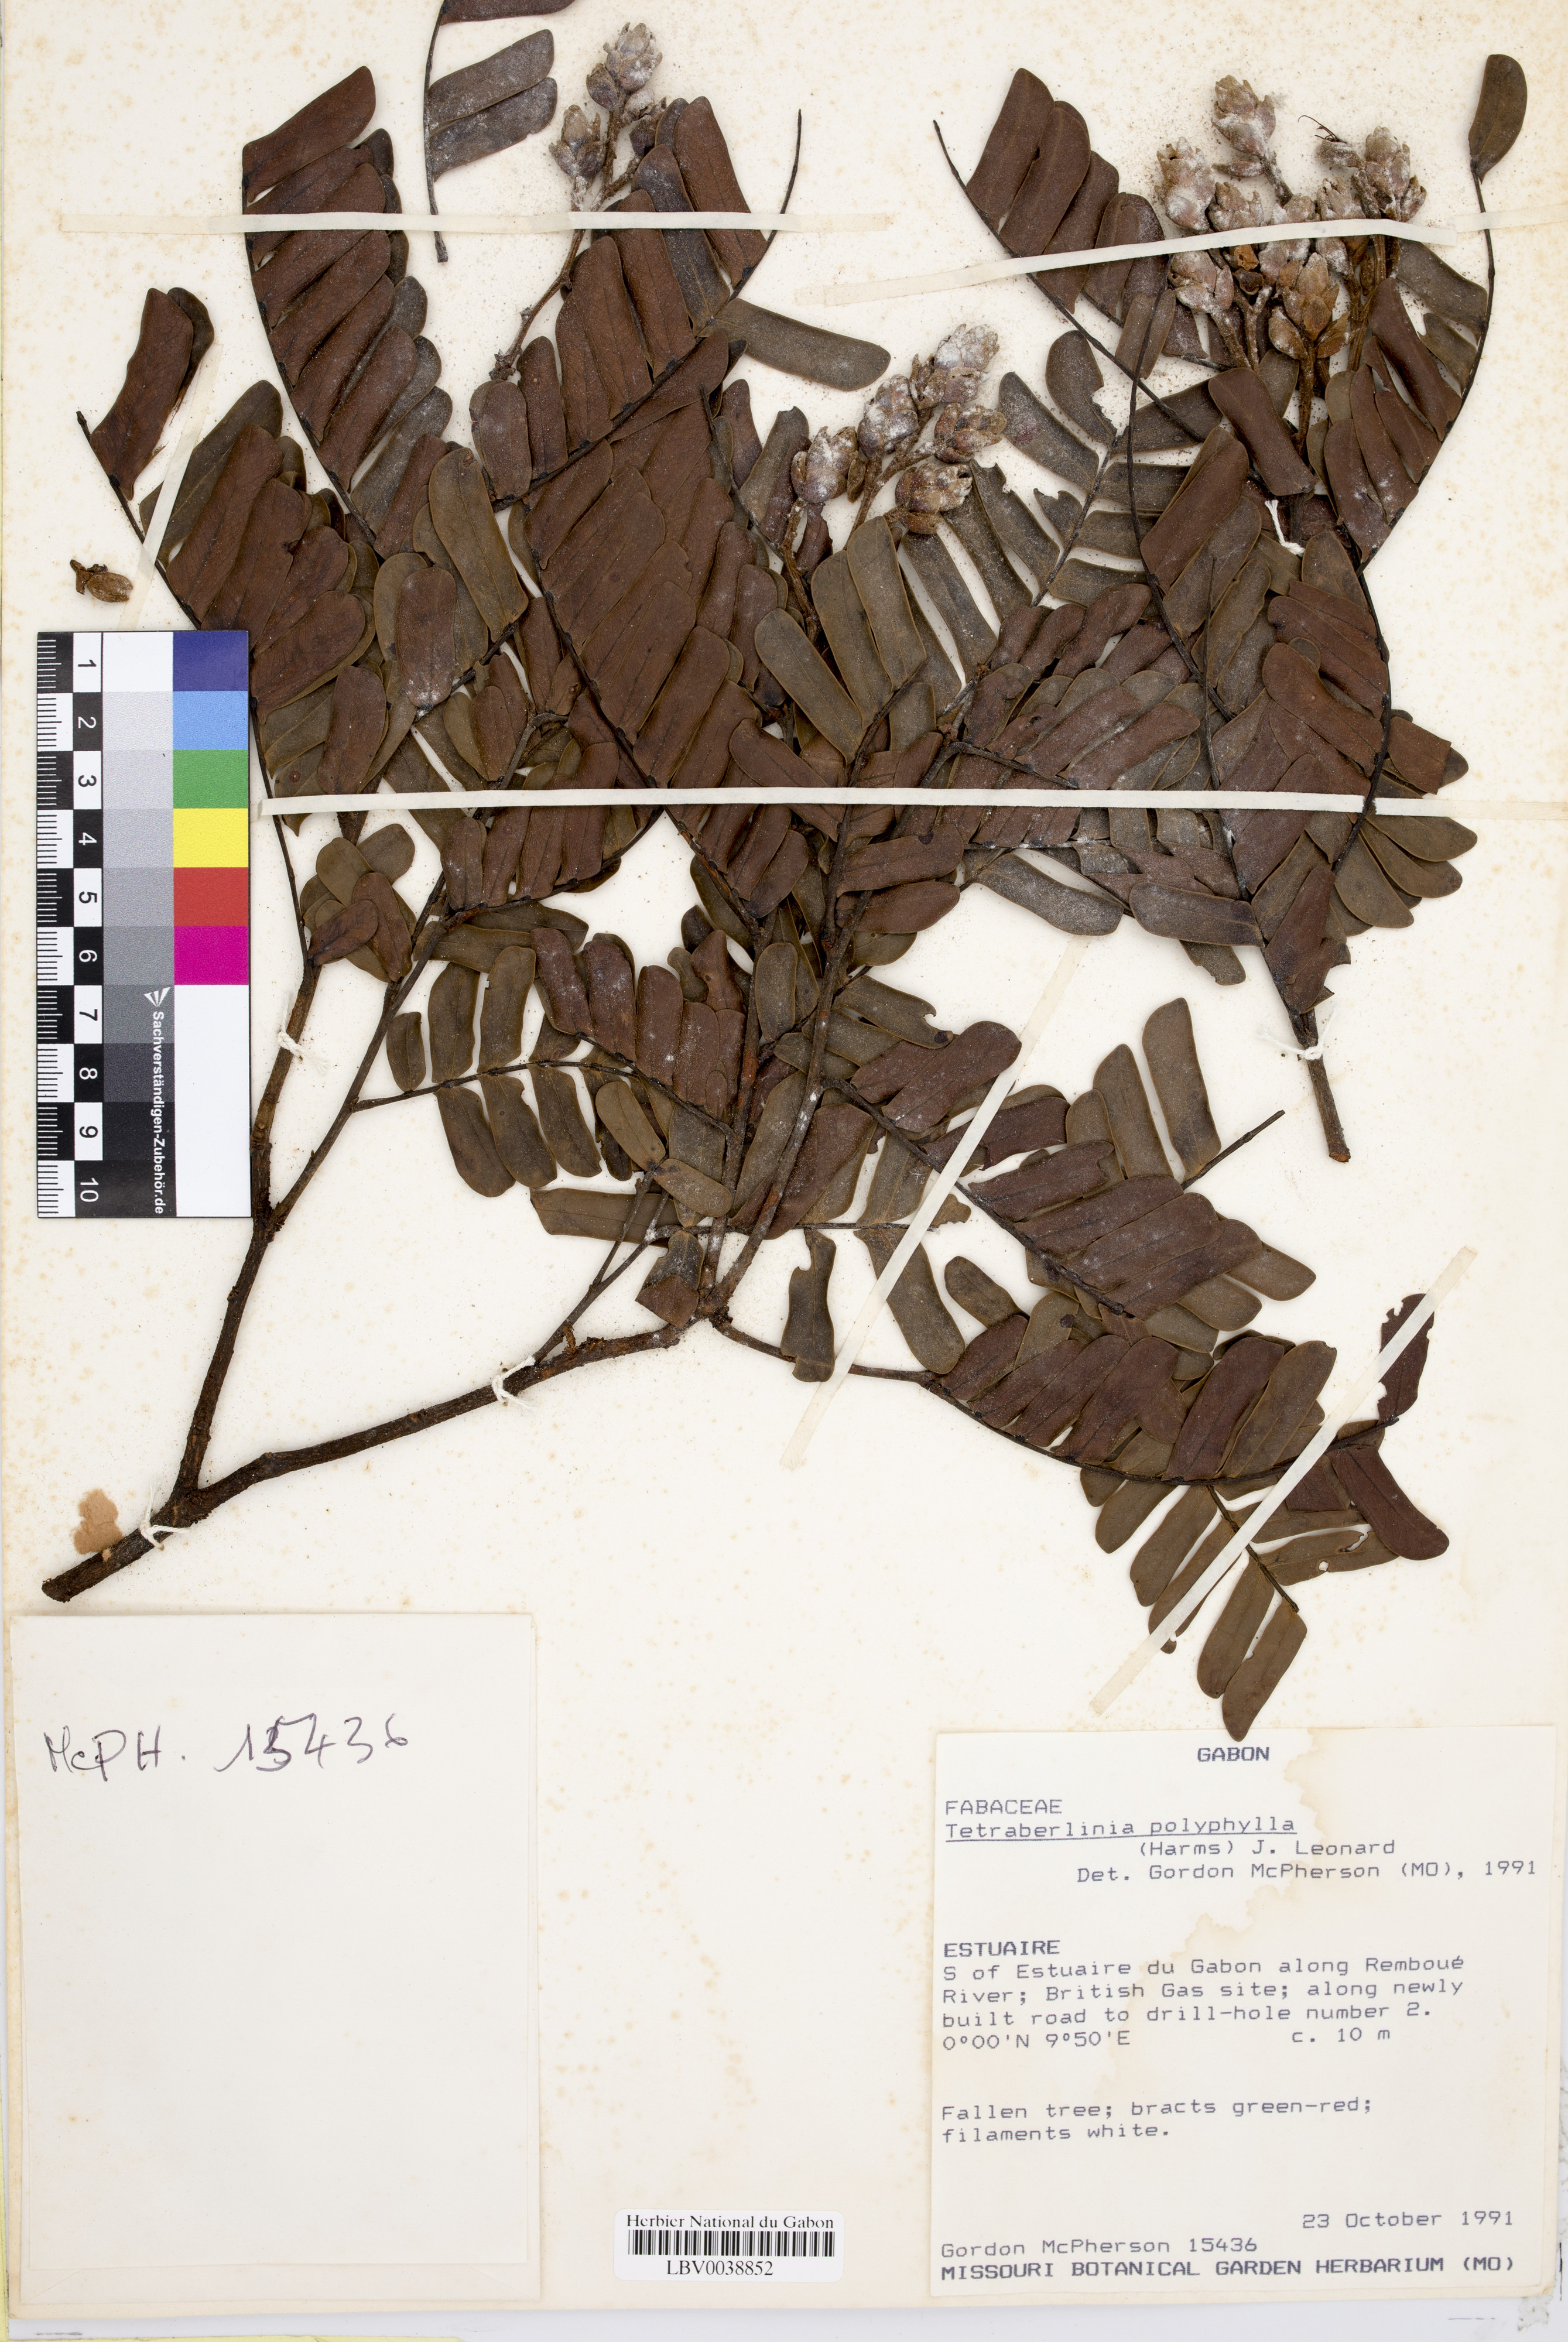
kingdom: Plantae
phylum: Tracheophyta
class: Magnoliopsida
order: Fabales
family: Fabaceae
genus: Tetraberlinia
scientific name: Tetraberlinia polyphylla
